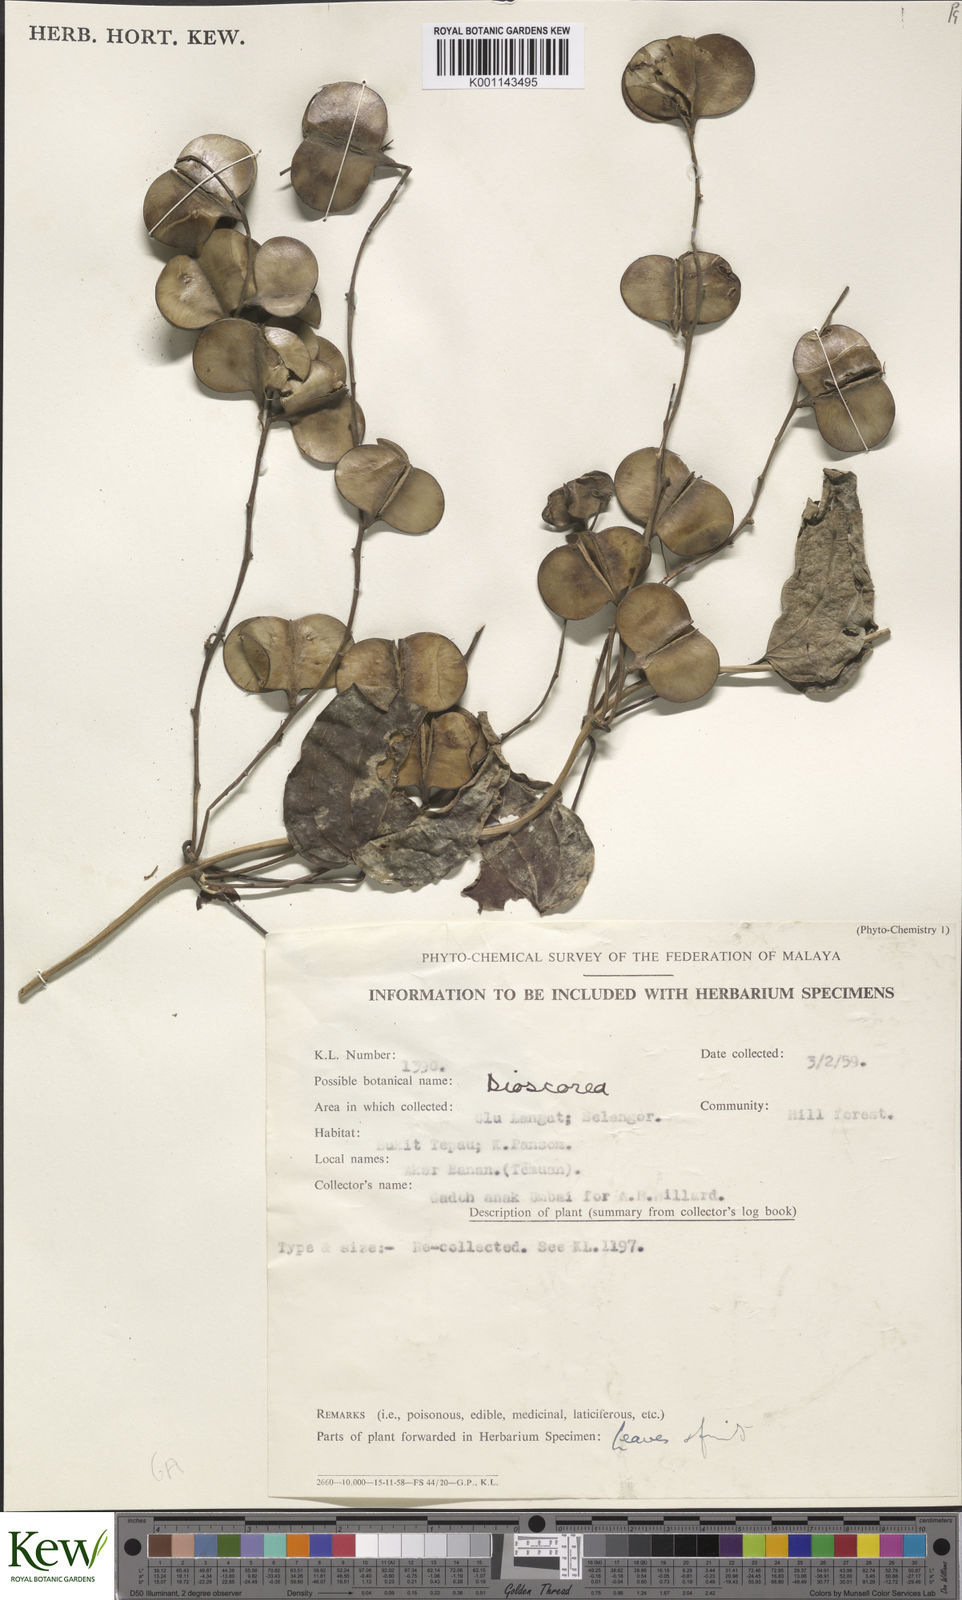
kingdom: Plantae
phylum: Tracheophyta
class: Liliopsida
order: Dioscoreales
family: Dioscoreaceae
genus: Dioscorea
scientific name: Dioscorea
